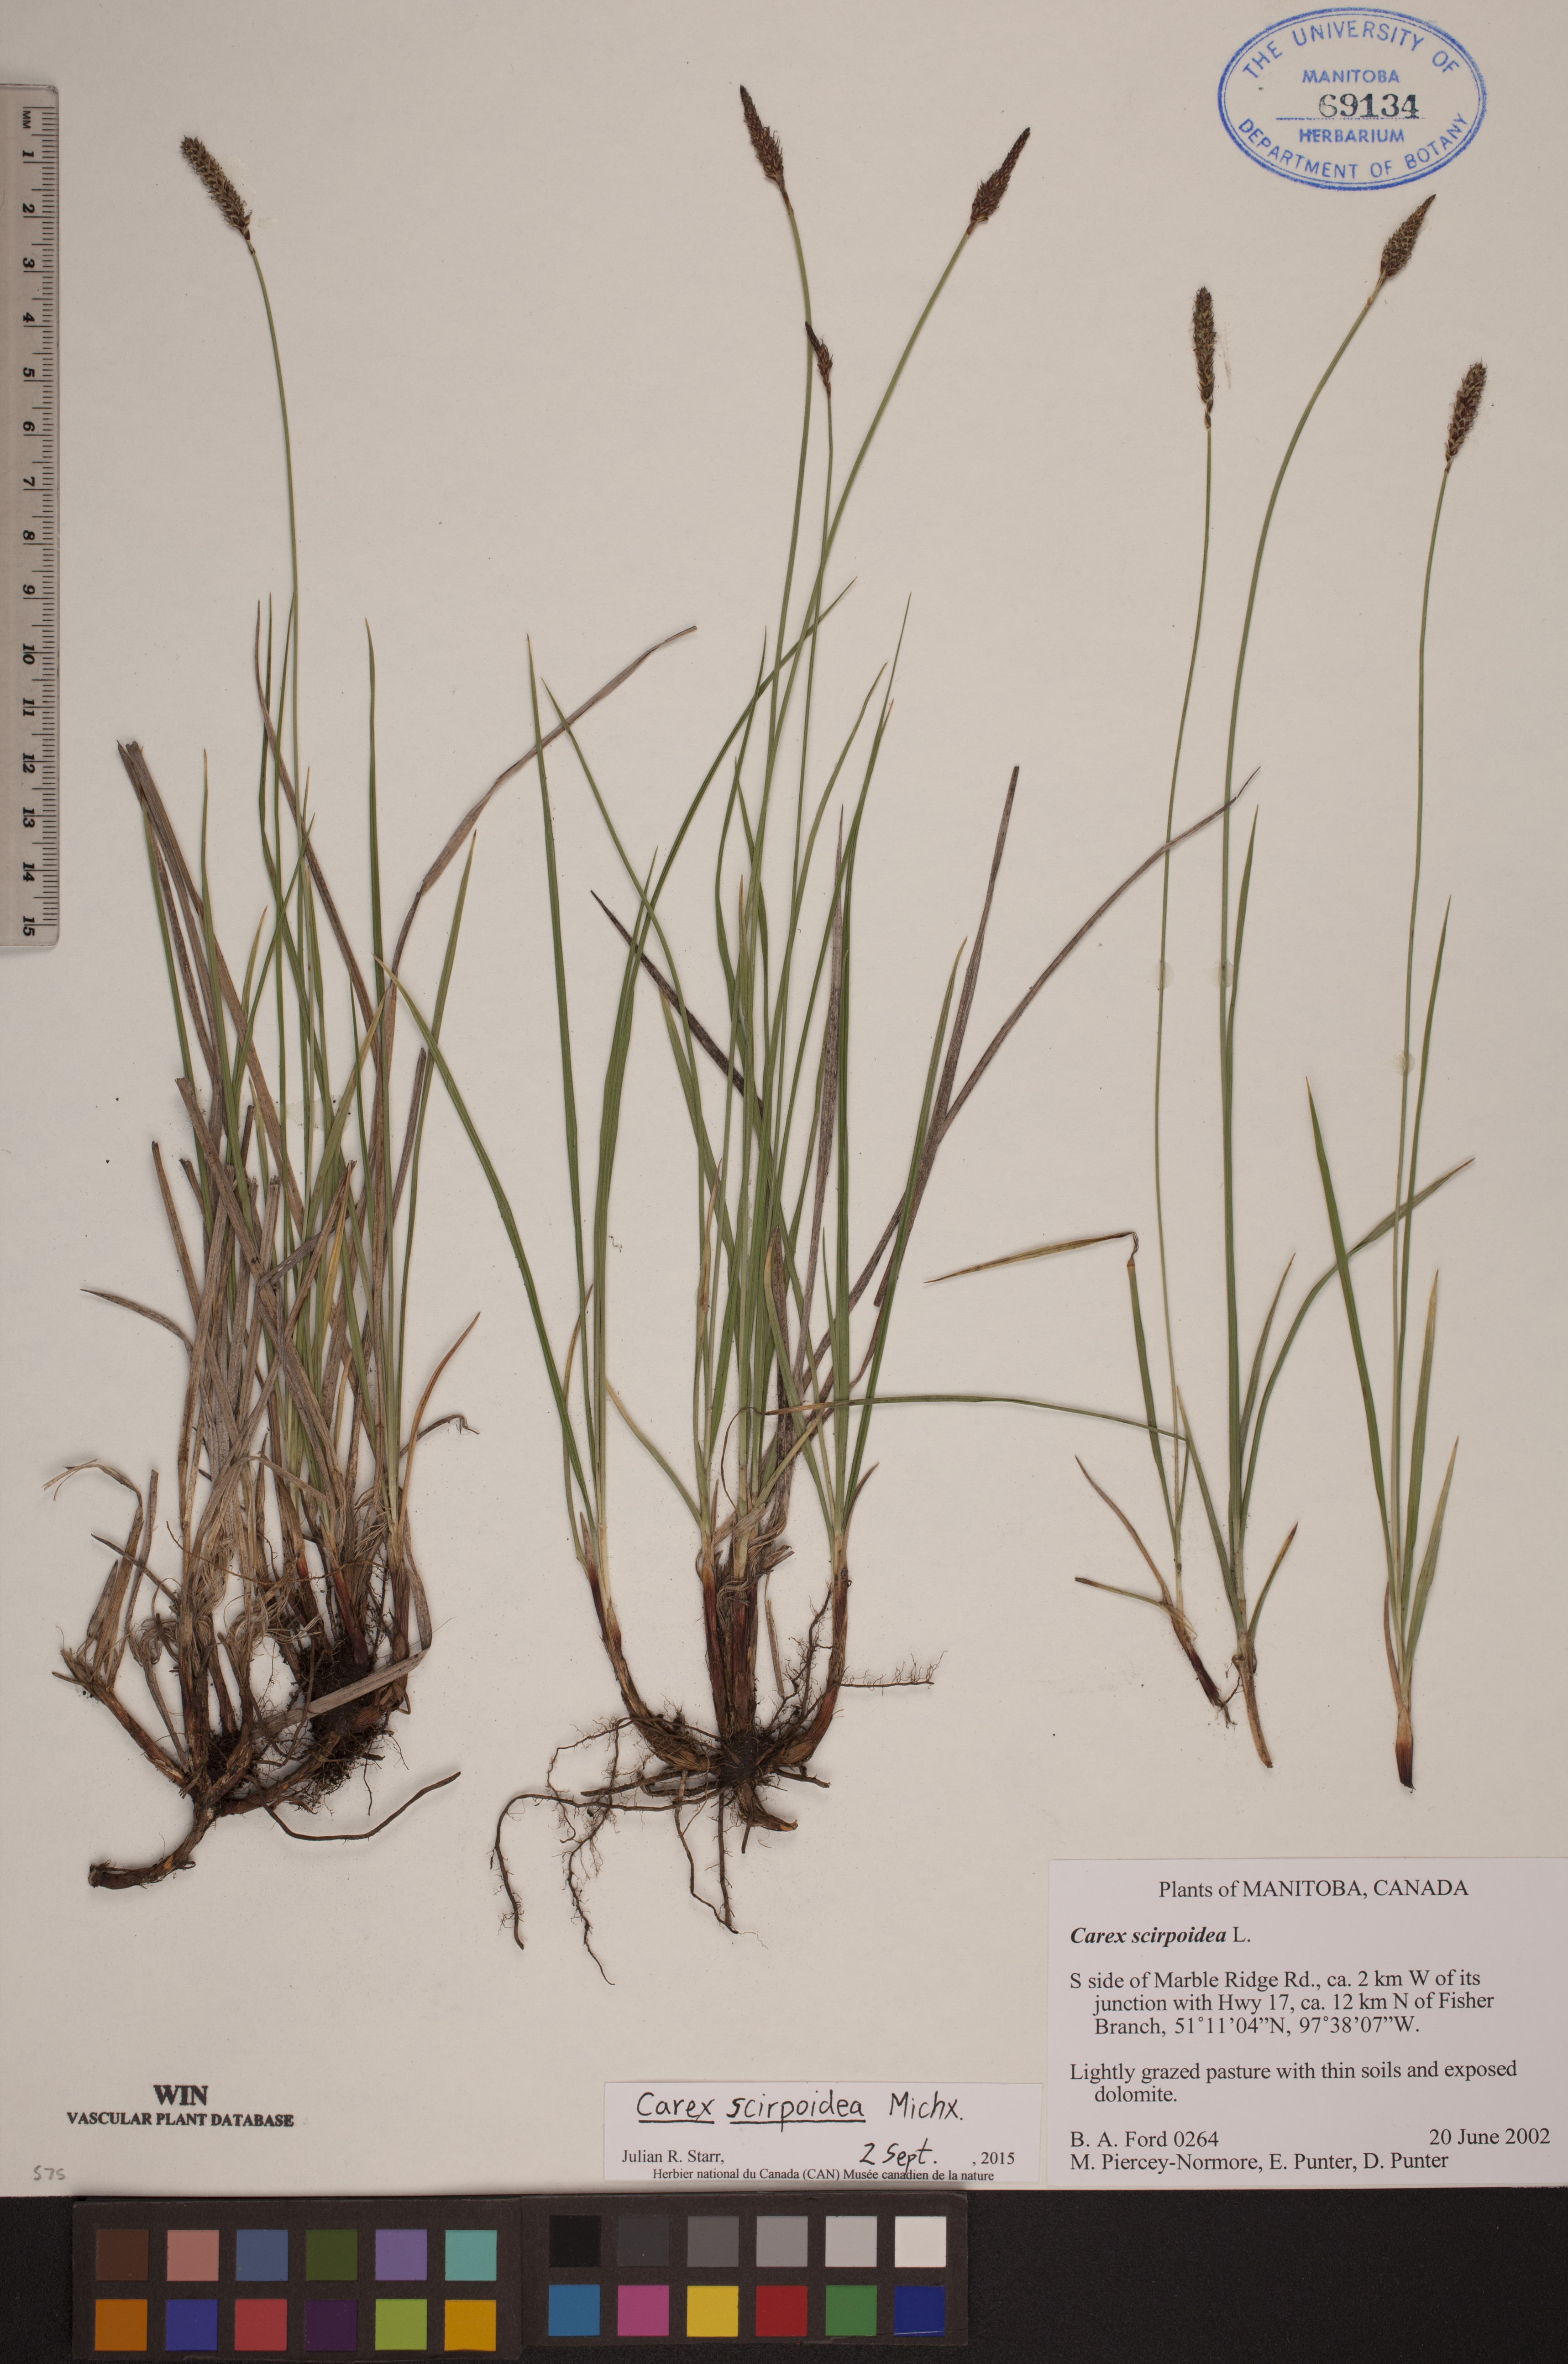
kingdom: Plantae
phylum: Tracheophyta
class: Liliopsida
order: Poales
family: Cyperaceae
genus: Carex
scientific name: Carex scirpoidea
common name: Canada single-spike sedge
